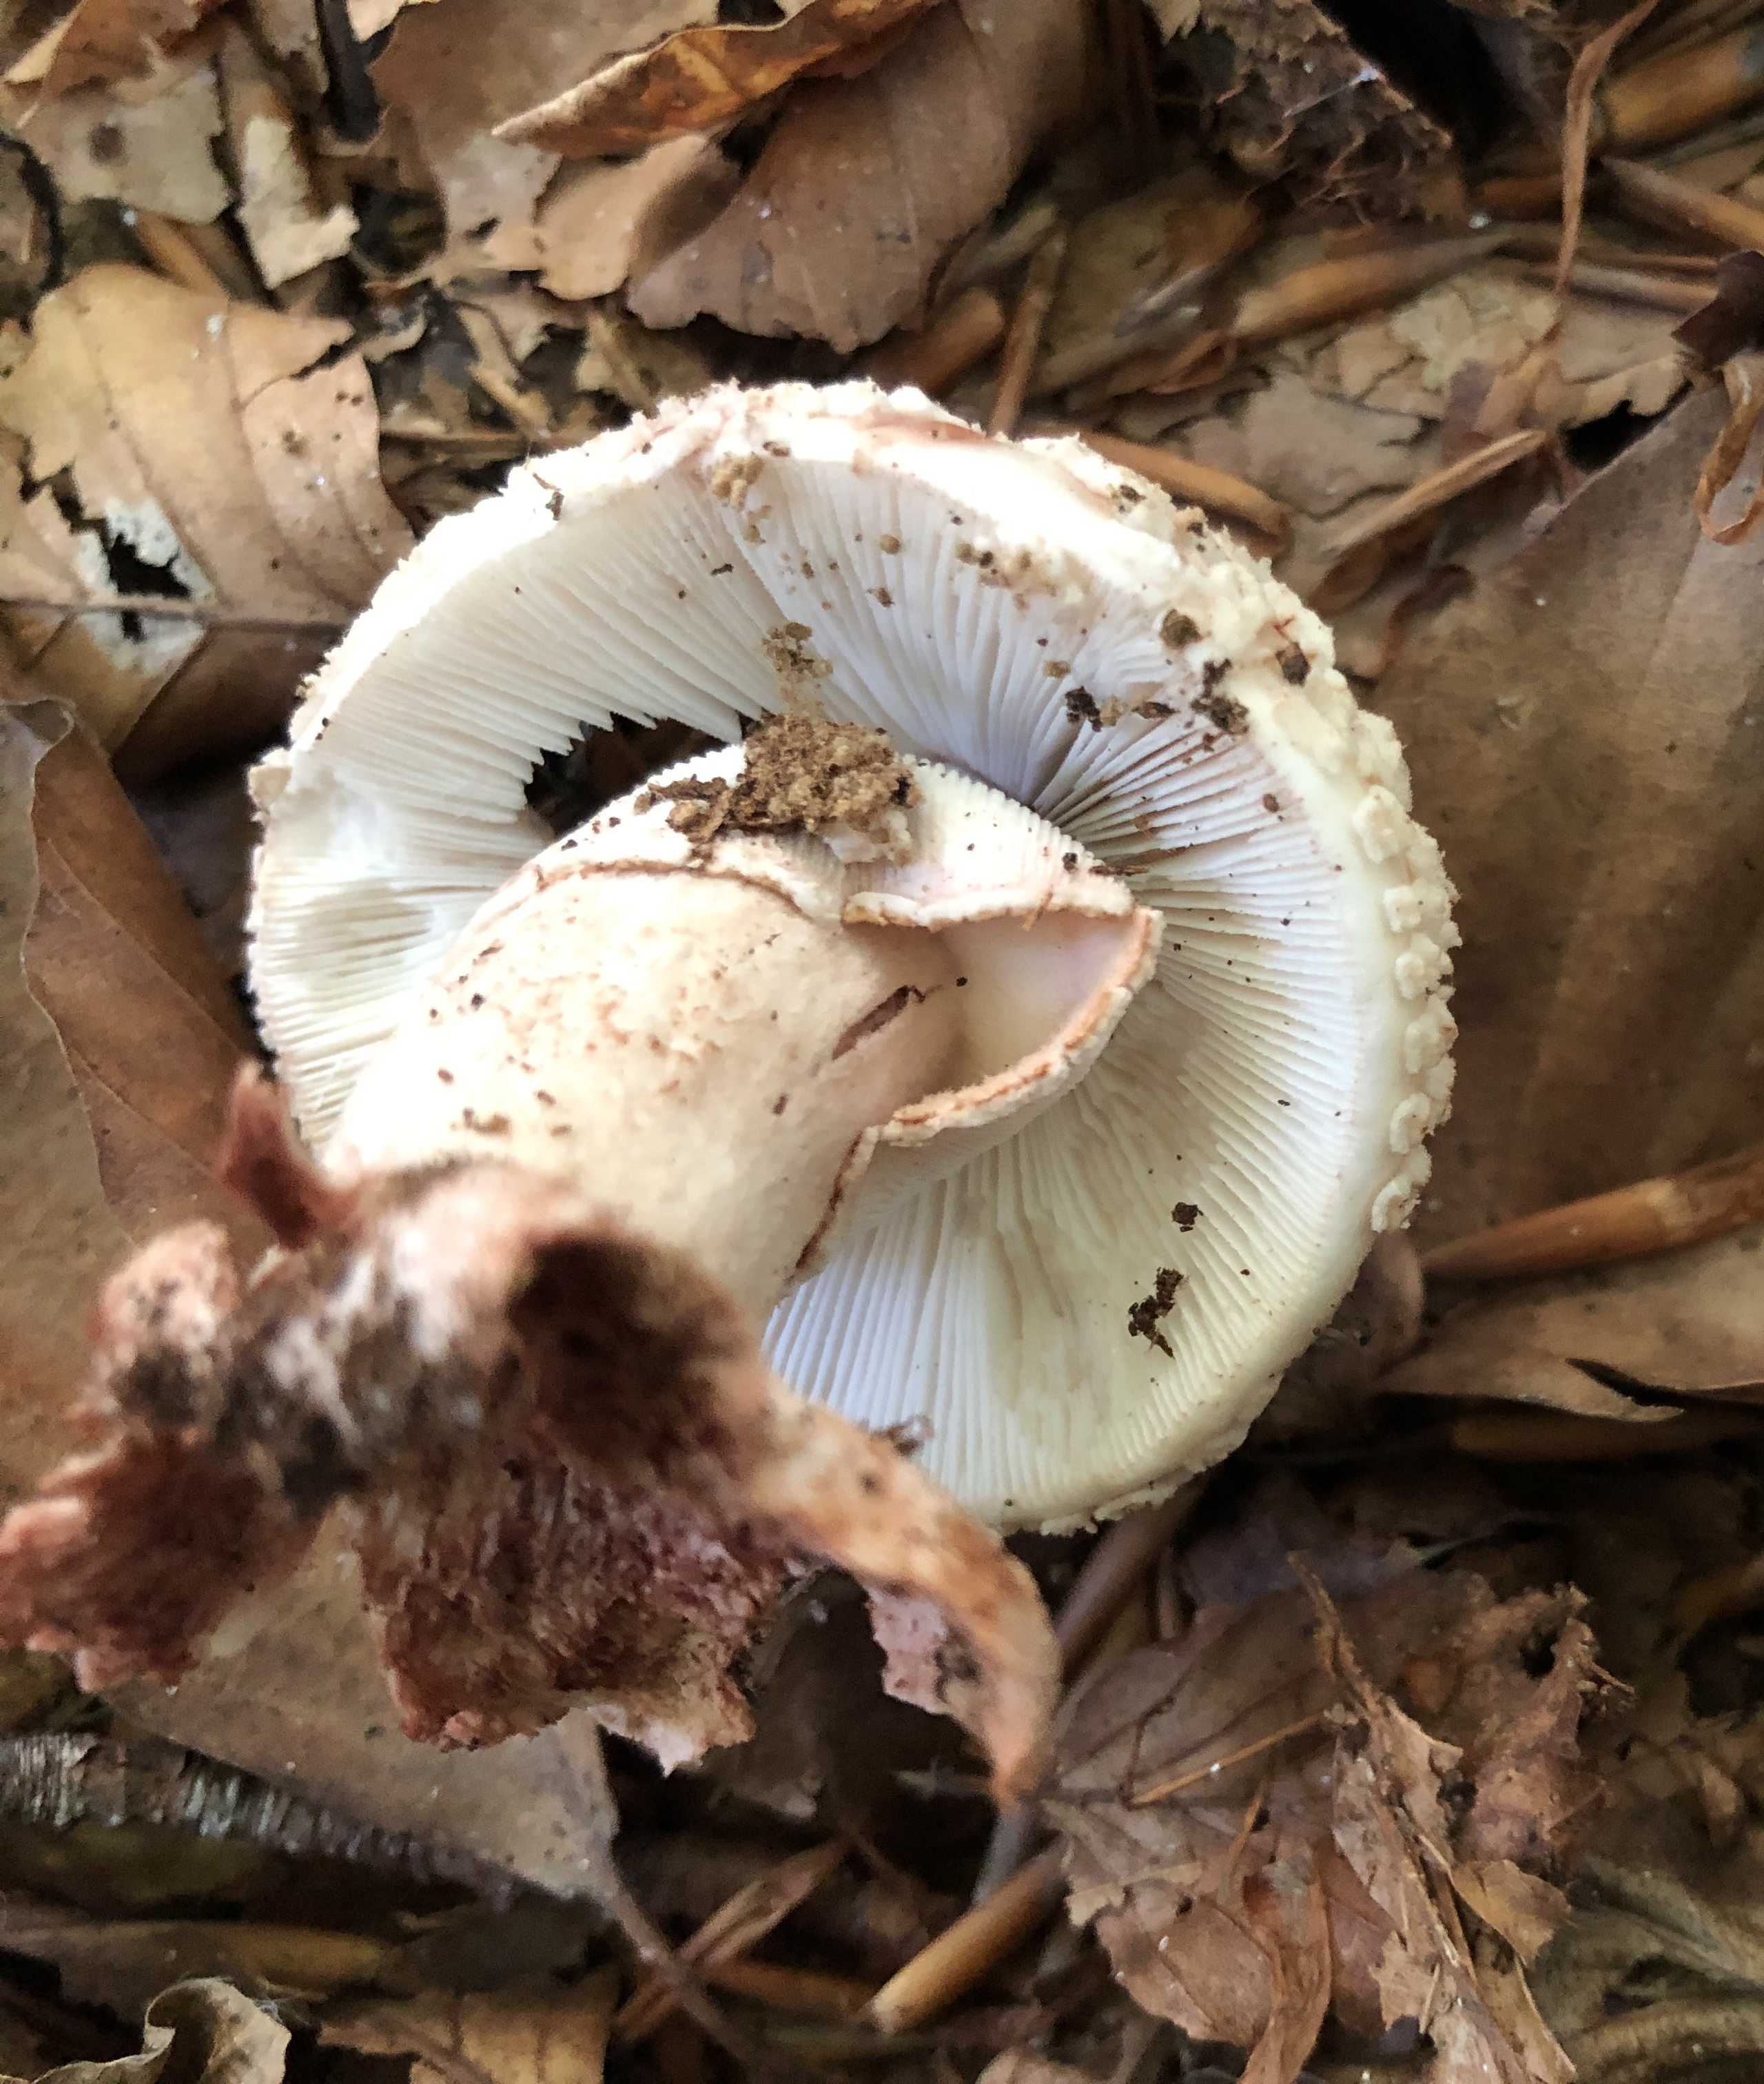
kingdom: Fungi
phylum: Basidiomycota
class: Agaricomycetes
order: Agaricales
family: Amanitaceae
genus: Amanita
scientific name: Amanita rubescens
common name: rødmende fluesvamp
